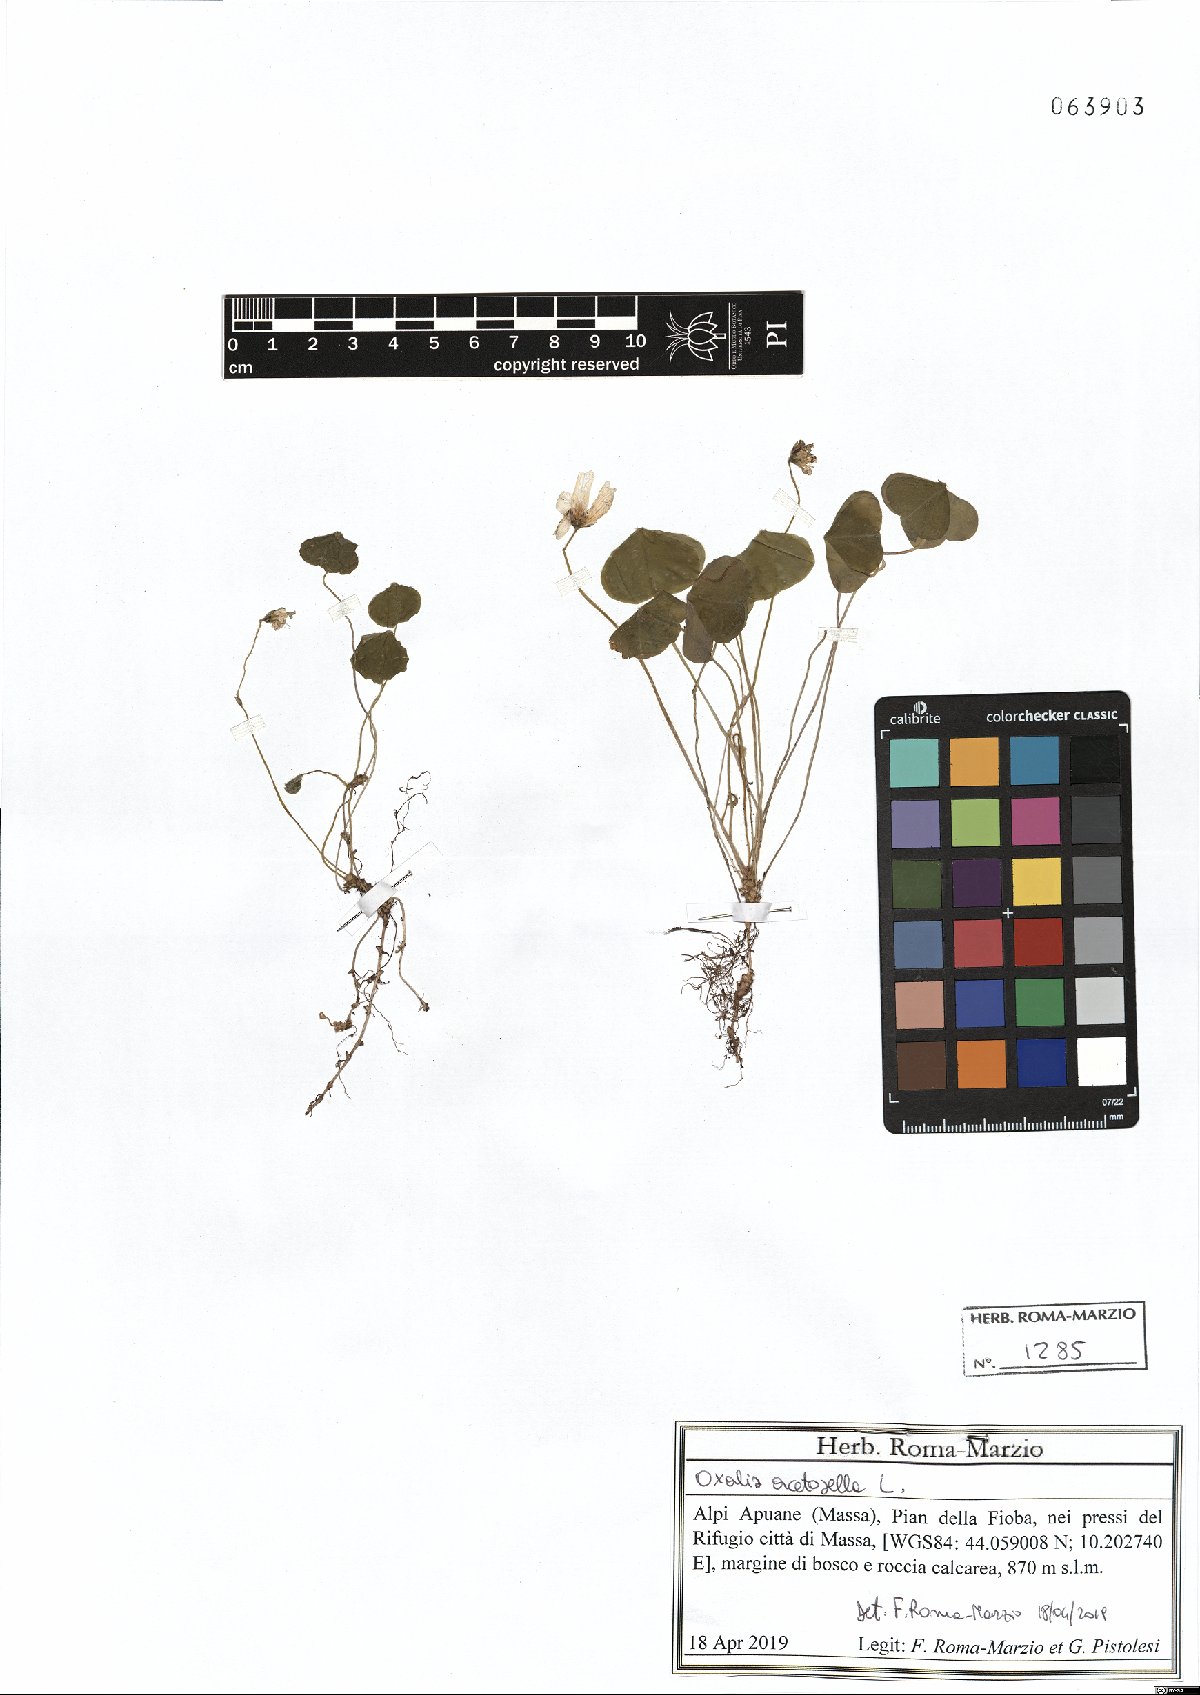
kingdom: Plantae
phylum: Tracheophyta
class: Magnoliopsida
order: Oxalidales
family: Oxalidaceae
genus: Oxalis
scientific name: Oxalis acetosella
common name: Wood-sorrel
